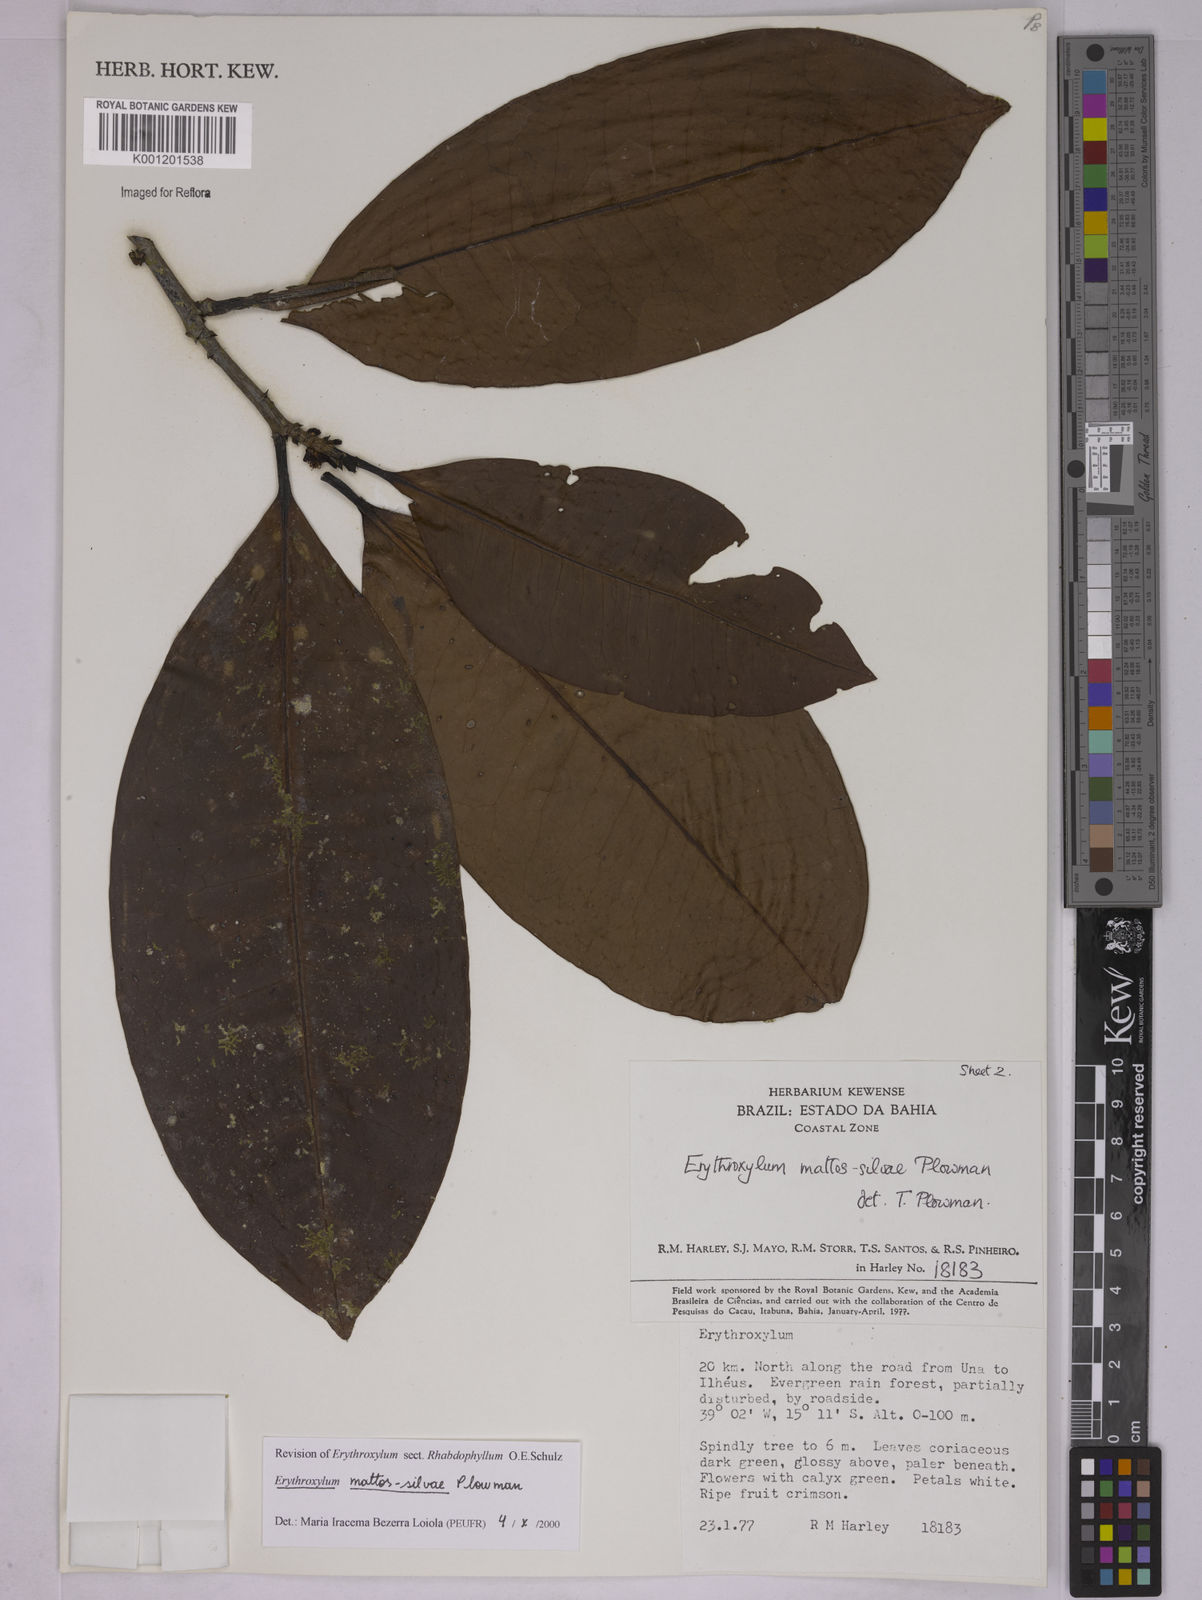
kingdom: Plantae
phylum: Tracheophyta
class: Magnoliopsida
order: Malpighiales
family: Erythroxylaceae
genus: Erythroxylum
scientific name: Erythroxylum mattos-silvae
